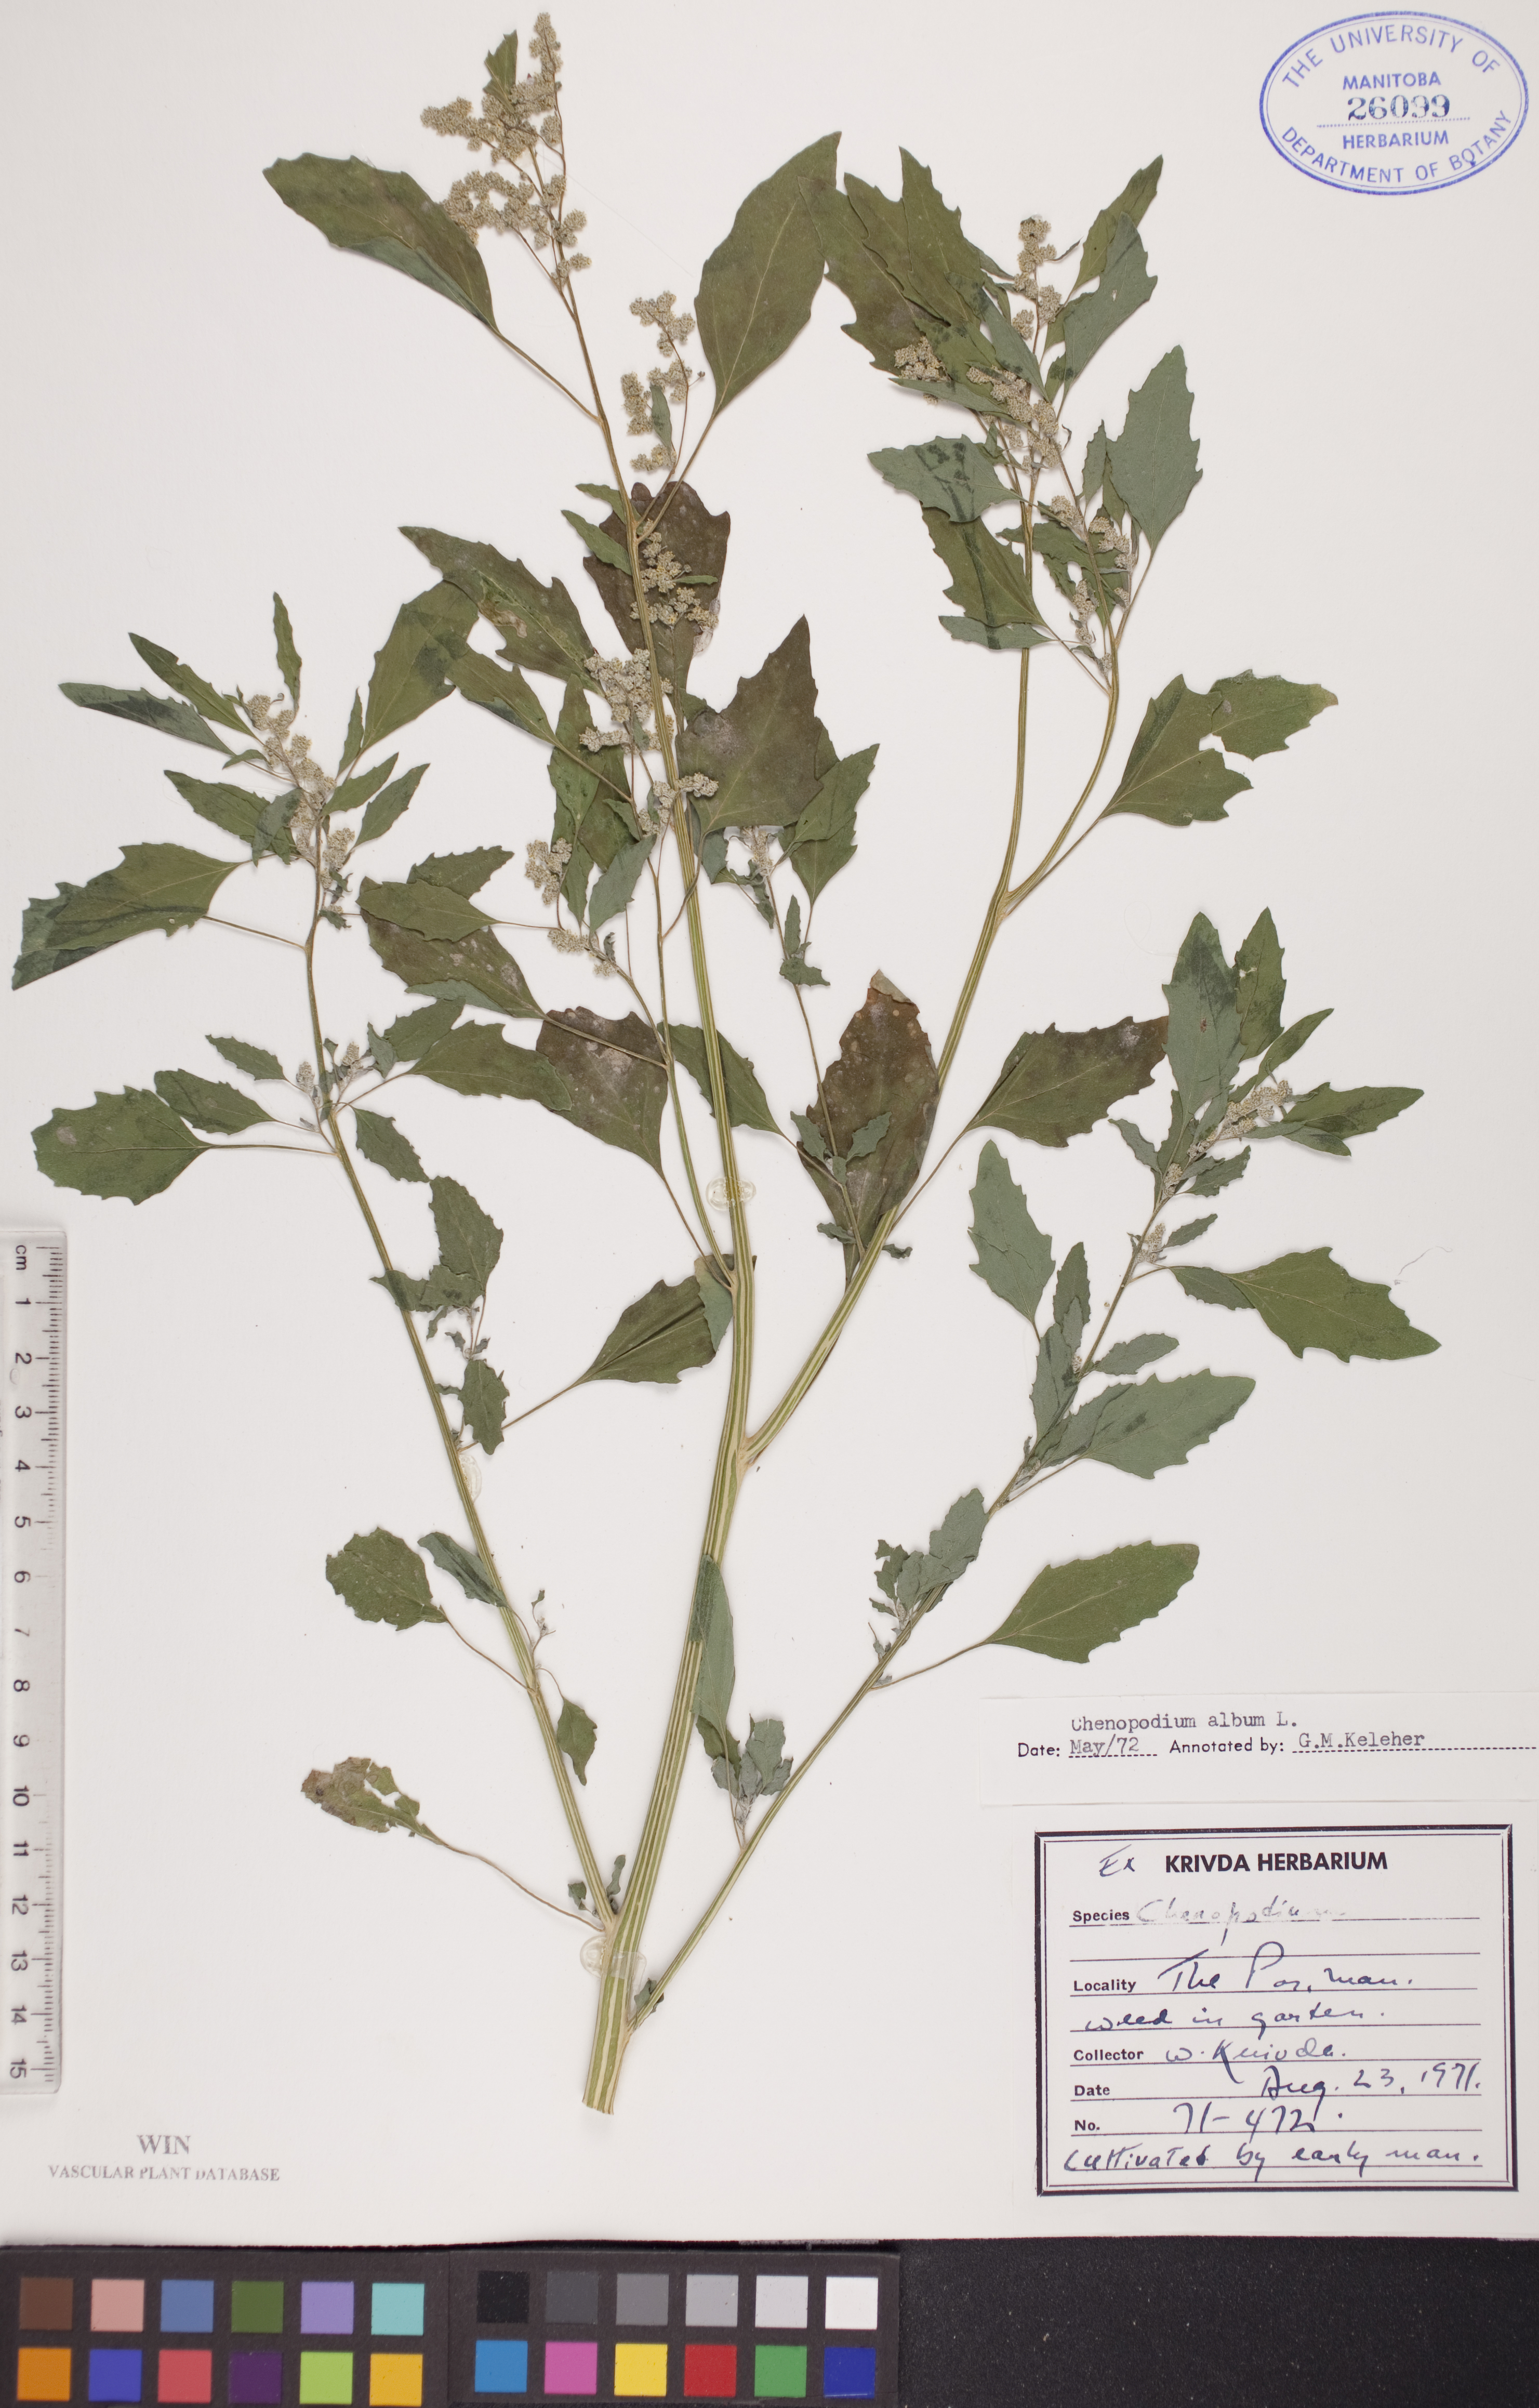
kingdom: Plantae
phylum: Tracheophyta
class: Magnoliopsida
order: Caryophyllales
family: Amaranthaceae
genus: Chenopodium
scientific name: Chenopodium album
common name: Fat-hen
